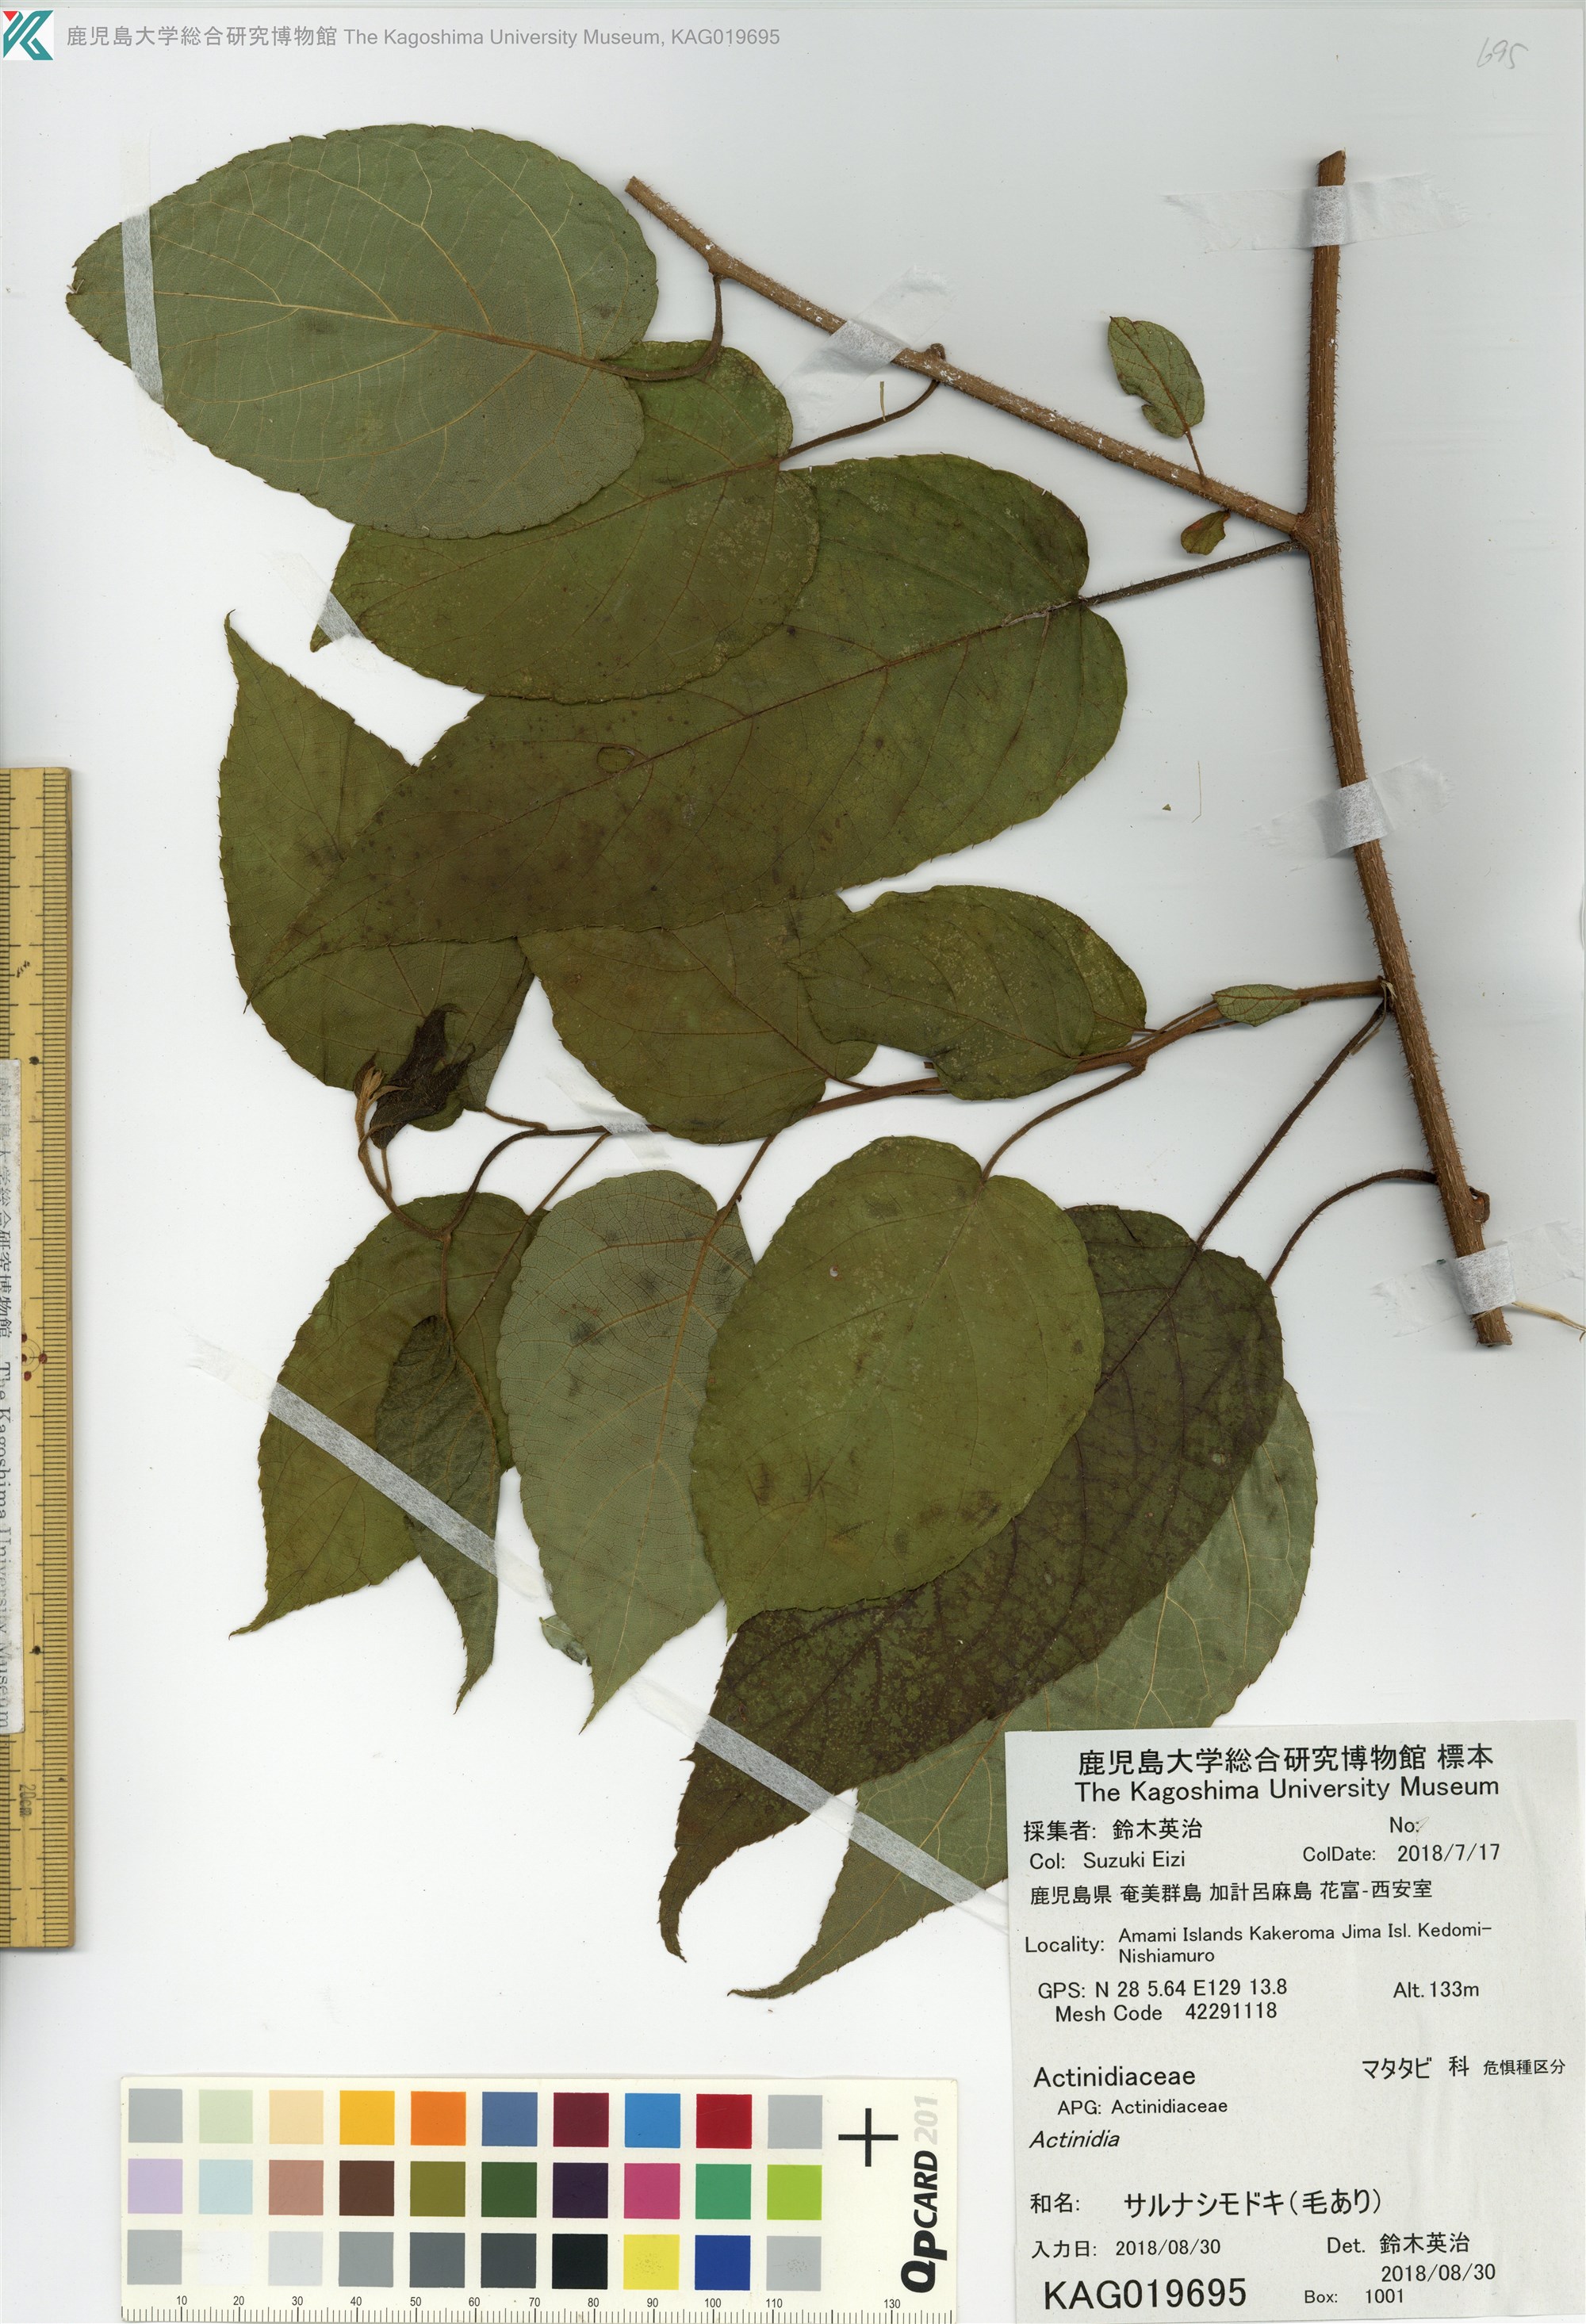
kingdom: Plantae
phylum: Tracheophyta
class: Magnoliopsida
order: Ericales
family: Actinidiaceae
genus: Actinidia
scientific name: Actinidia rufa
